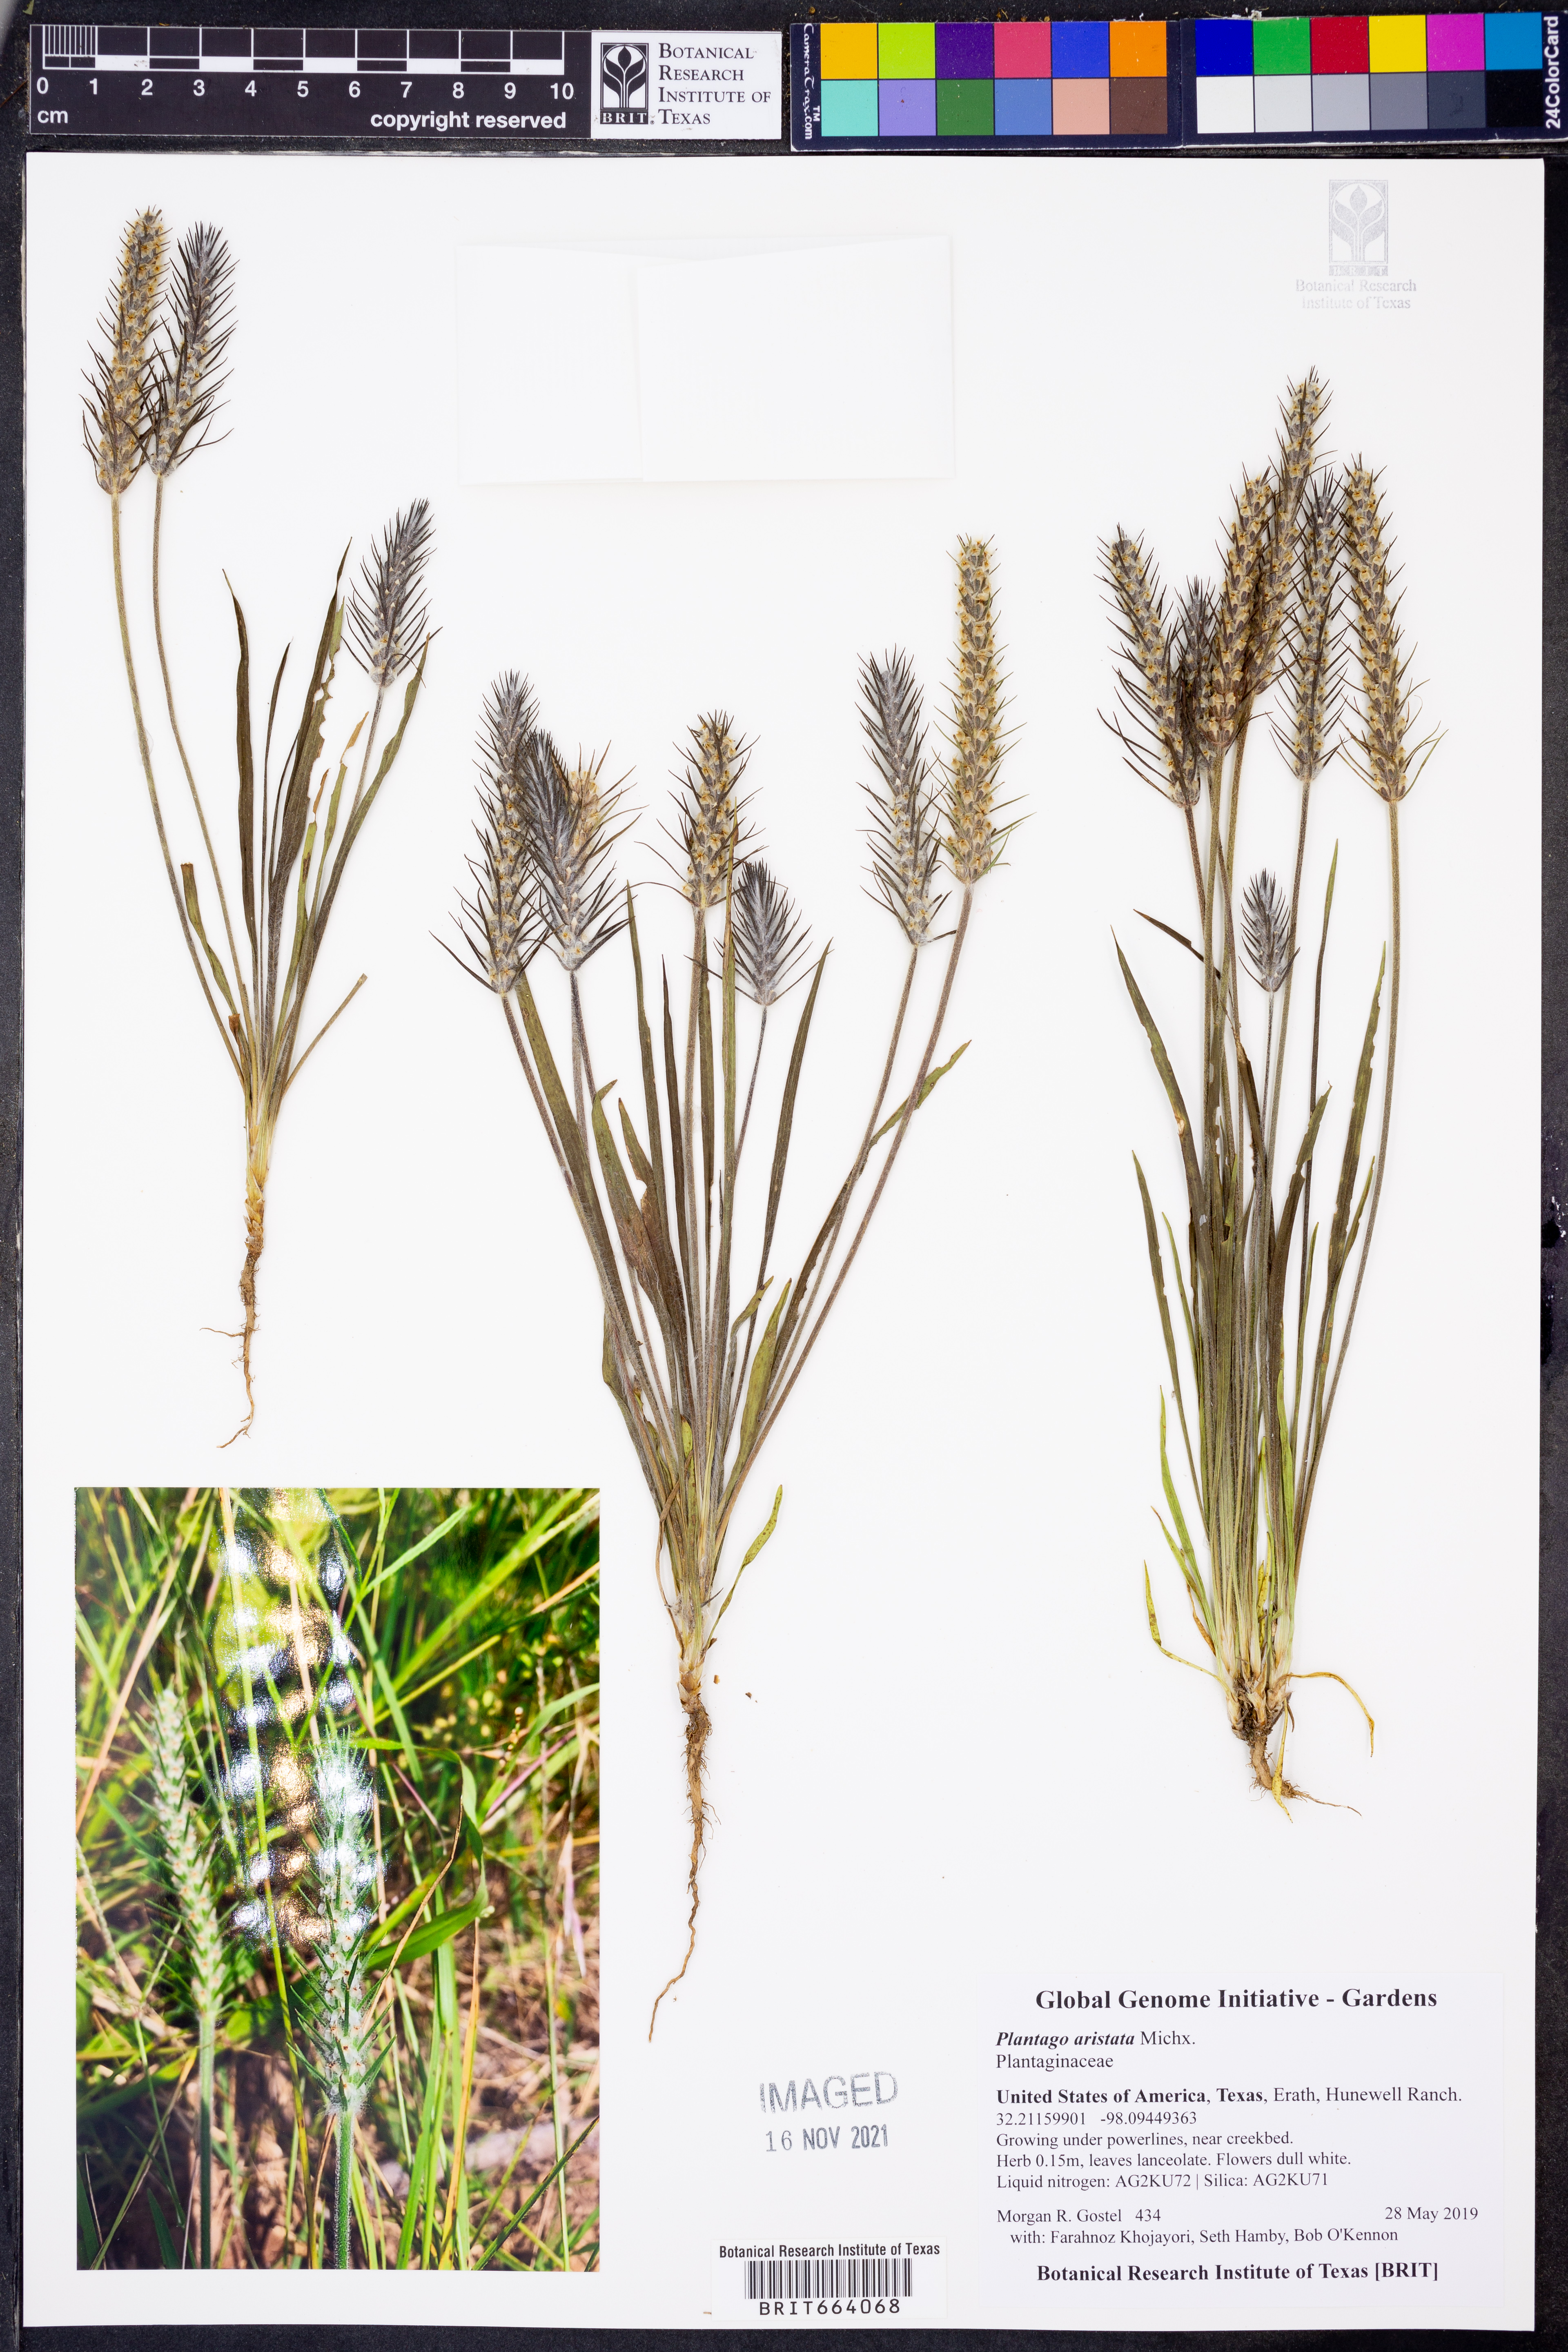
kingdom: Plantae
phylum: Tracheophyta
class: Magnoliopsida
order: Lamiales
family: Plantaginaceae
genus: Plantago
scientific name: Plantago aristata
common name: Bracted plantain
